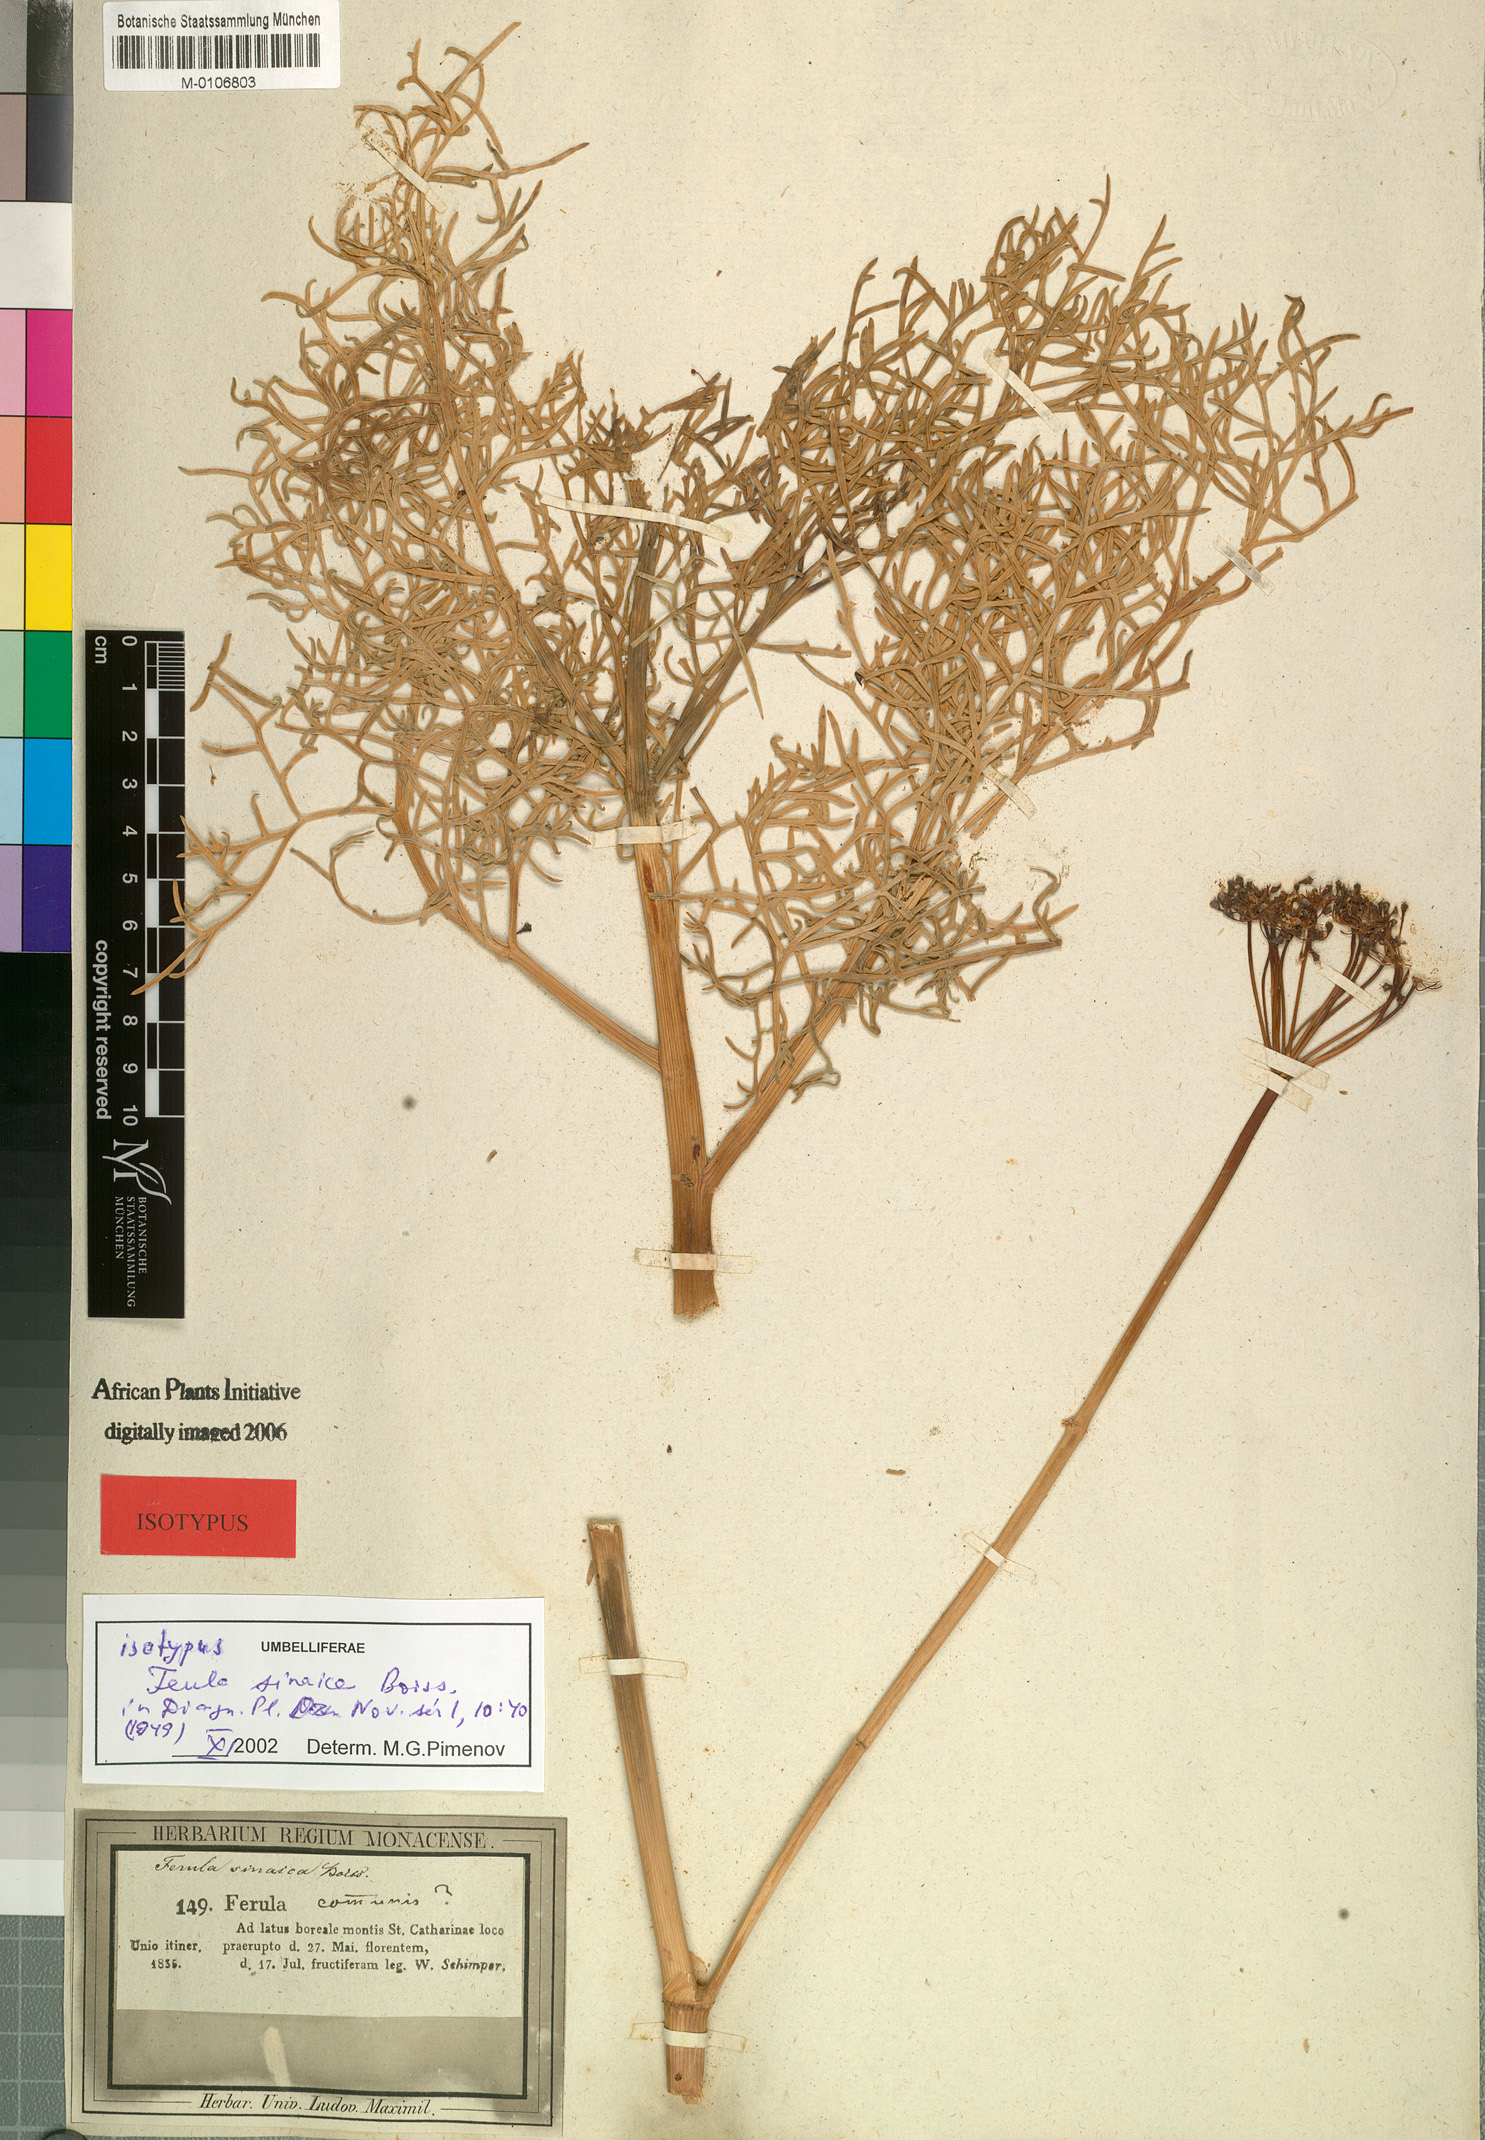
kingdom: Plantae
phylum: Tracheophyta
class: Magnoliopsida
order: Apiales
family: Apiaceae
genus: Ferula
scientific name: Ferula sinaica
